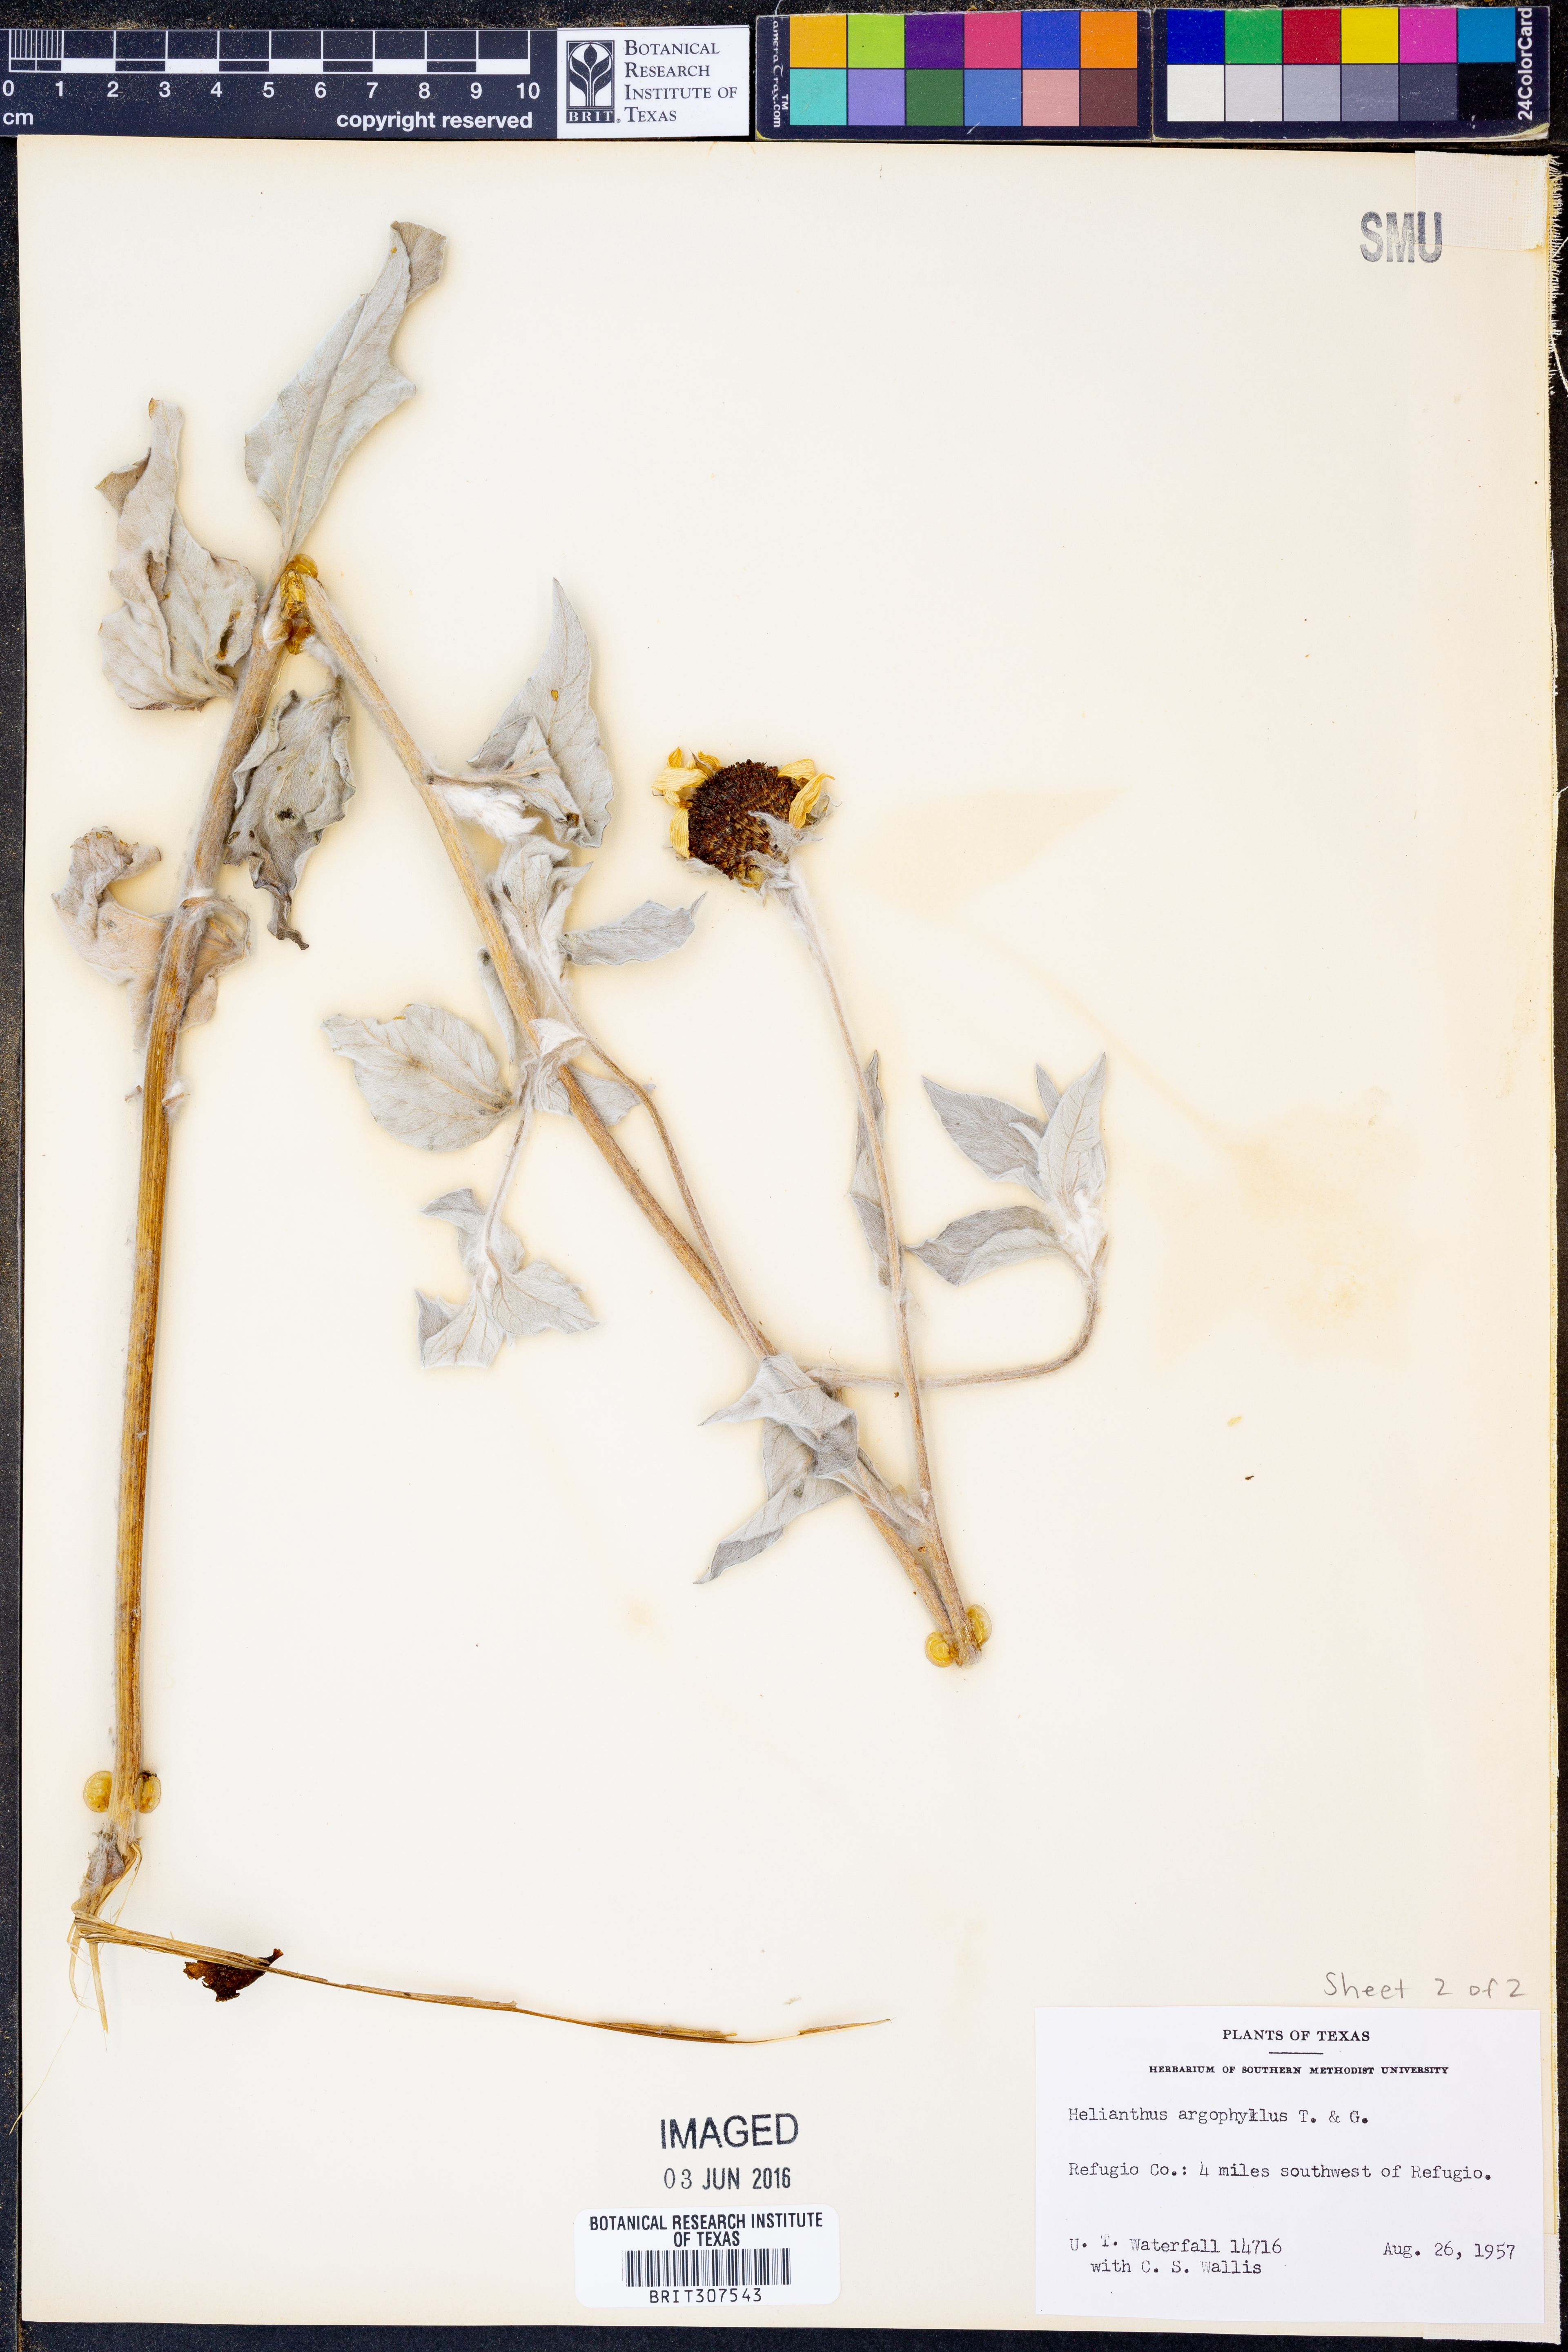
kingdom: Plantae
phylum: Tracheophyta
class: Magnoliopsida
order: Asterales
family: Asteraceae
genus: Helianthus
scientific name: Helianthus argophyllus
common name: Silverleaf sunflower
